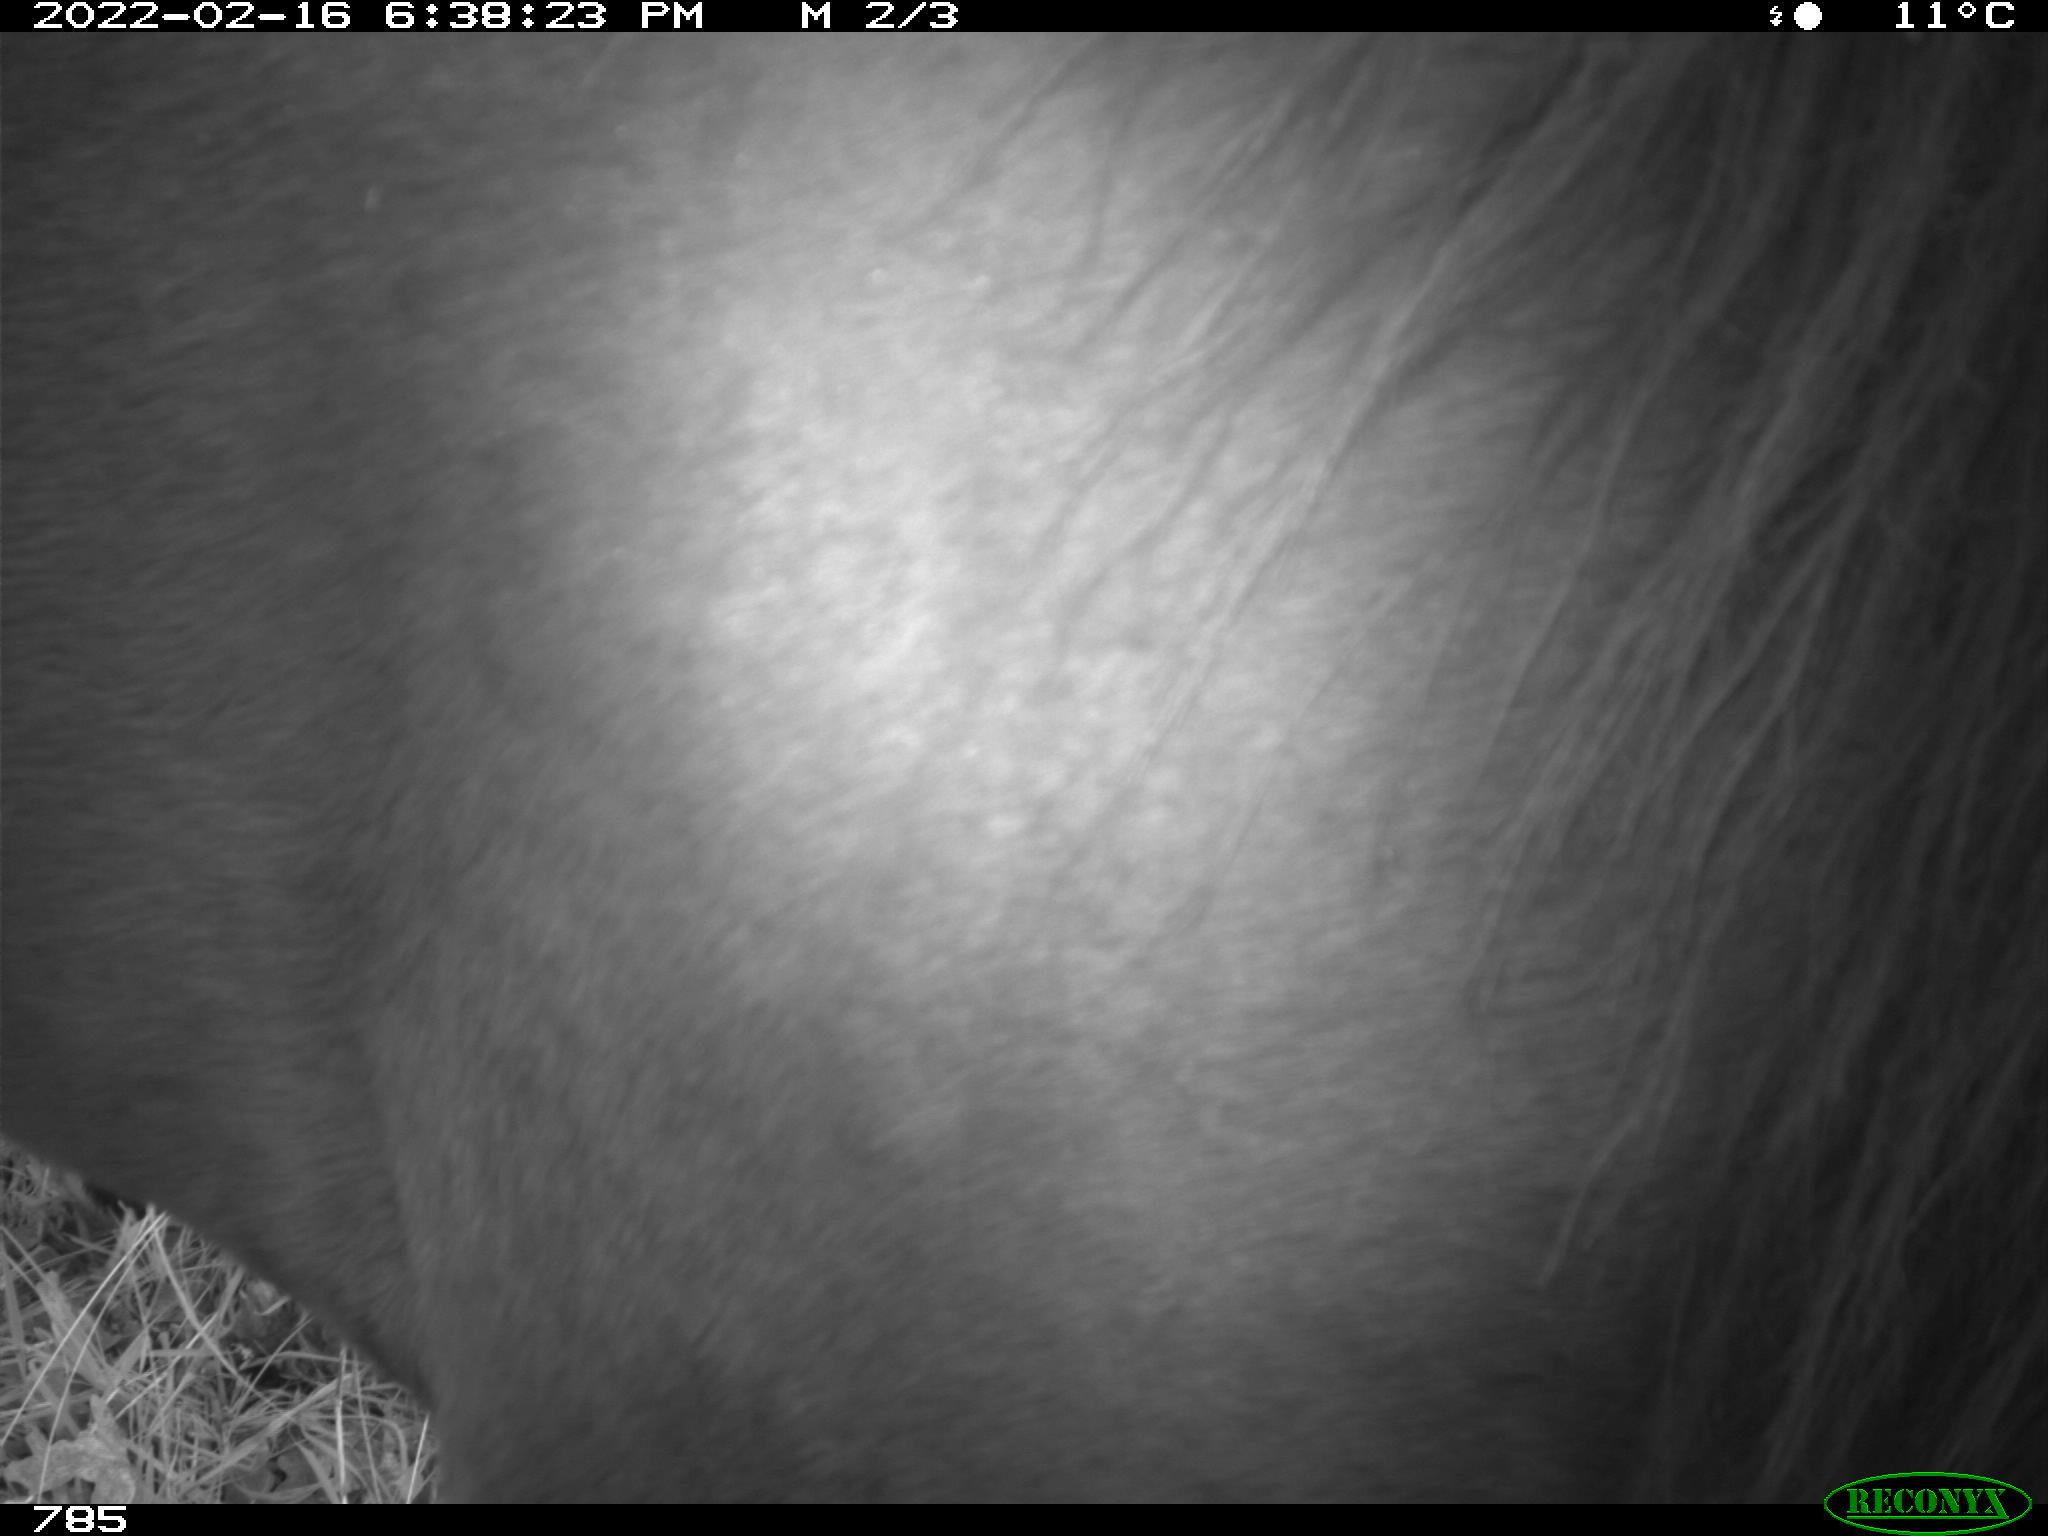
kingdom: Animalia
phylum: Chordata
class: Mammalia
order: Perissodactyla
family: Equidae
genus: Equus
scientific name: Equus caballus
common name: Horse
